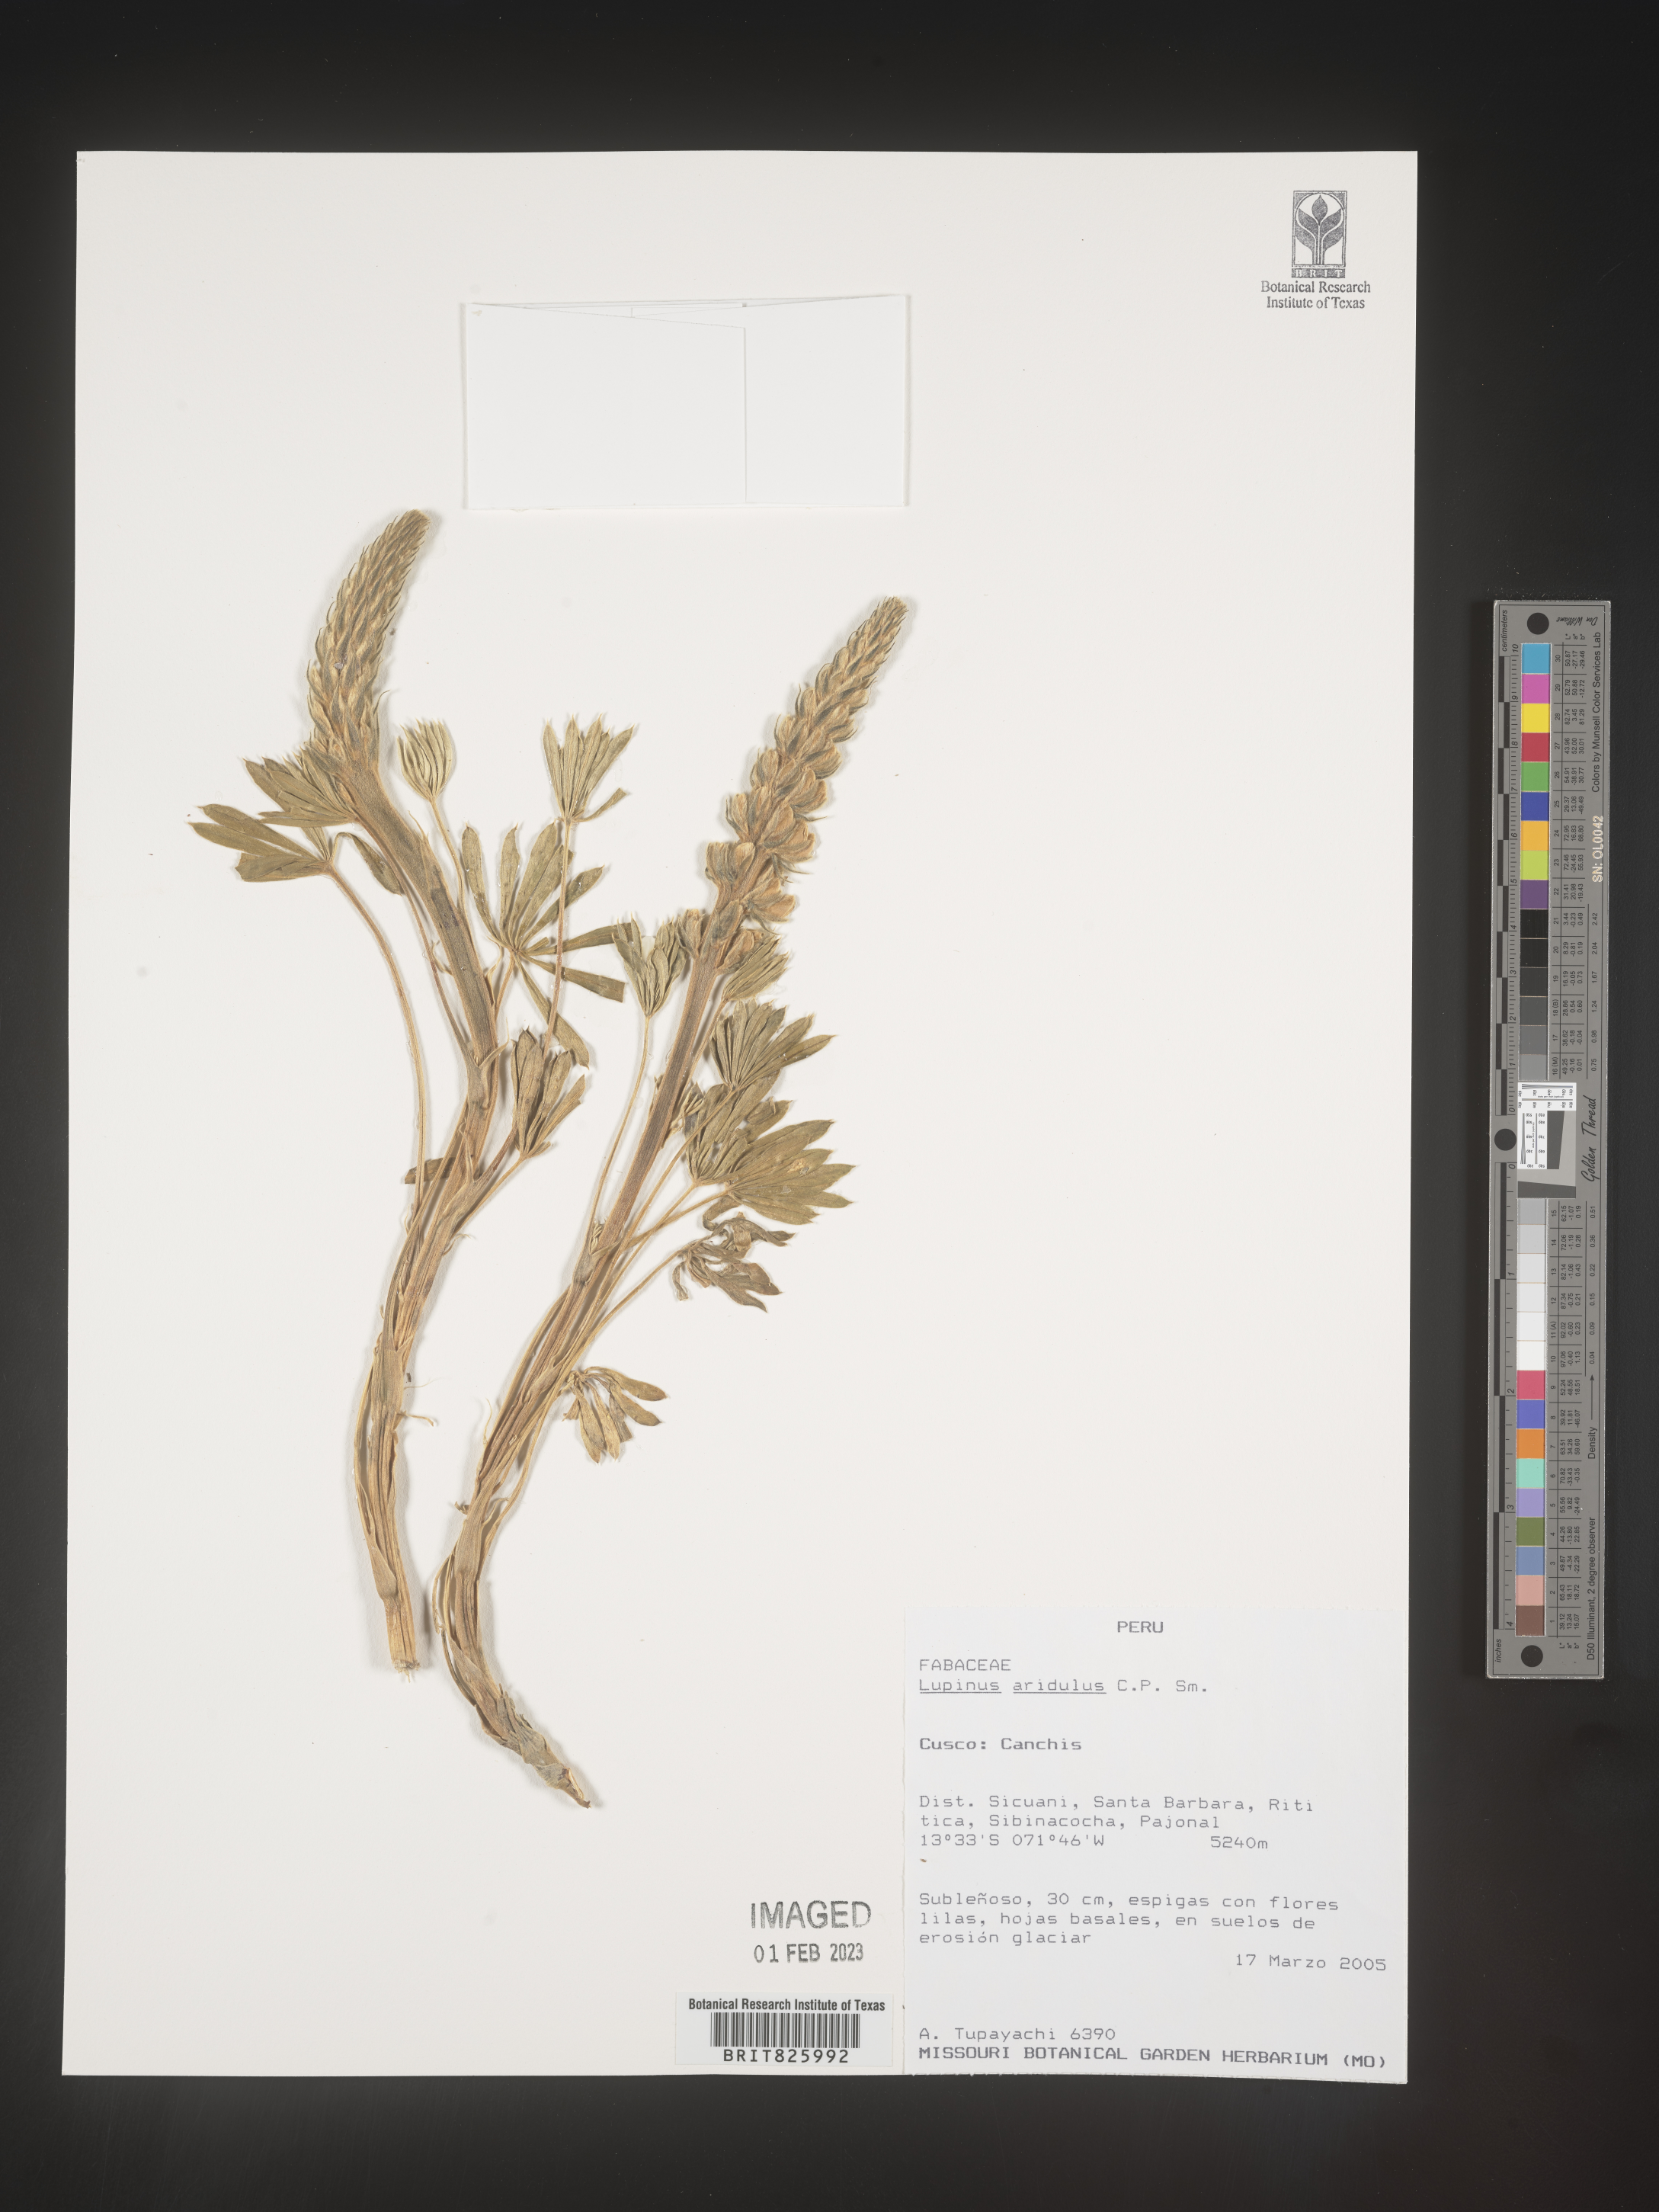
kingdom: Plantae
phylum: Tracheophyta
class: Magnoliopsida
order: Fabales
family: Fabaceae
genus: Lupinus
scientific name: Lupinus
